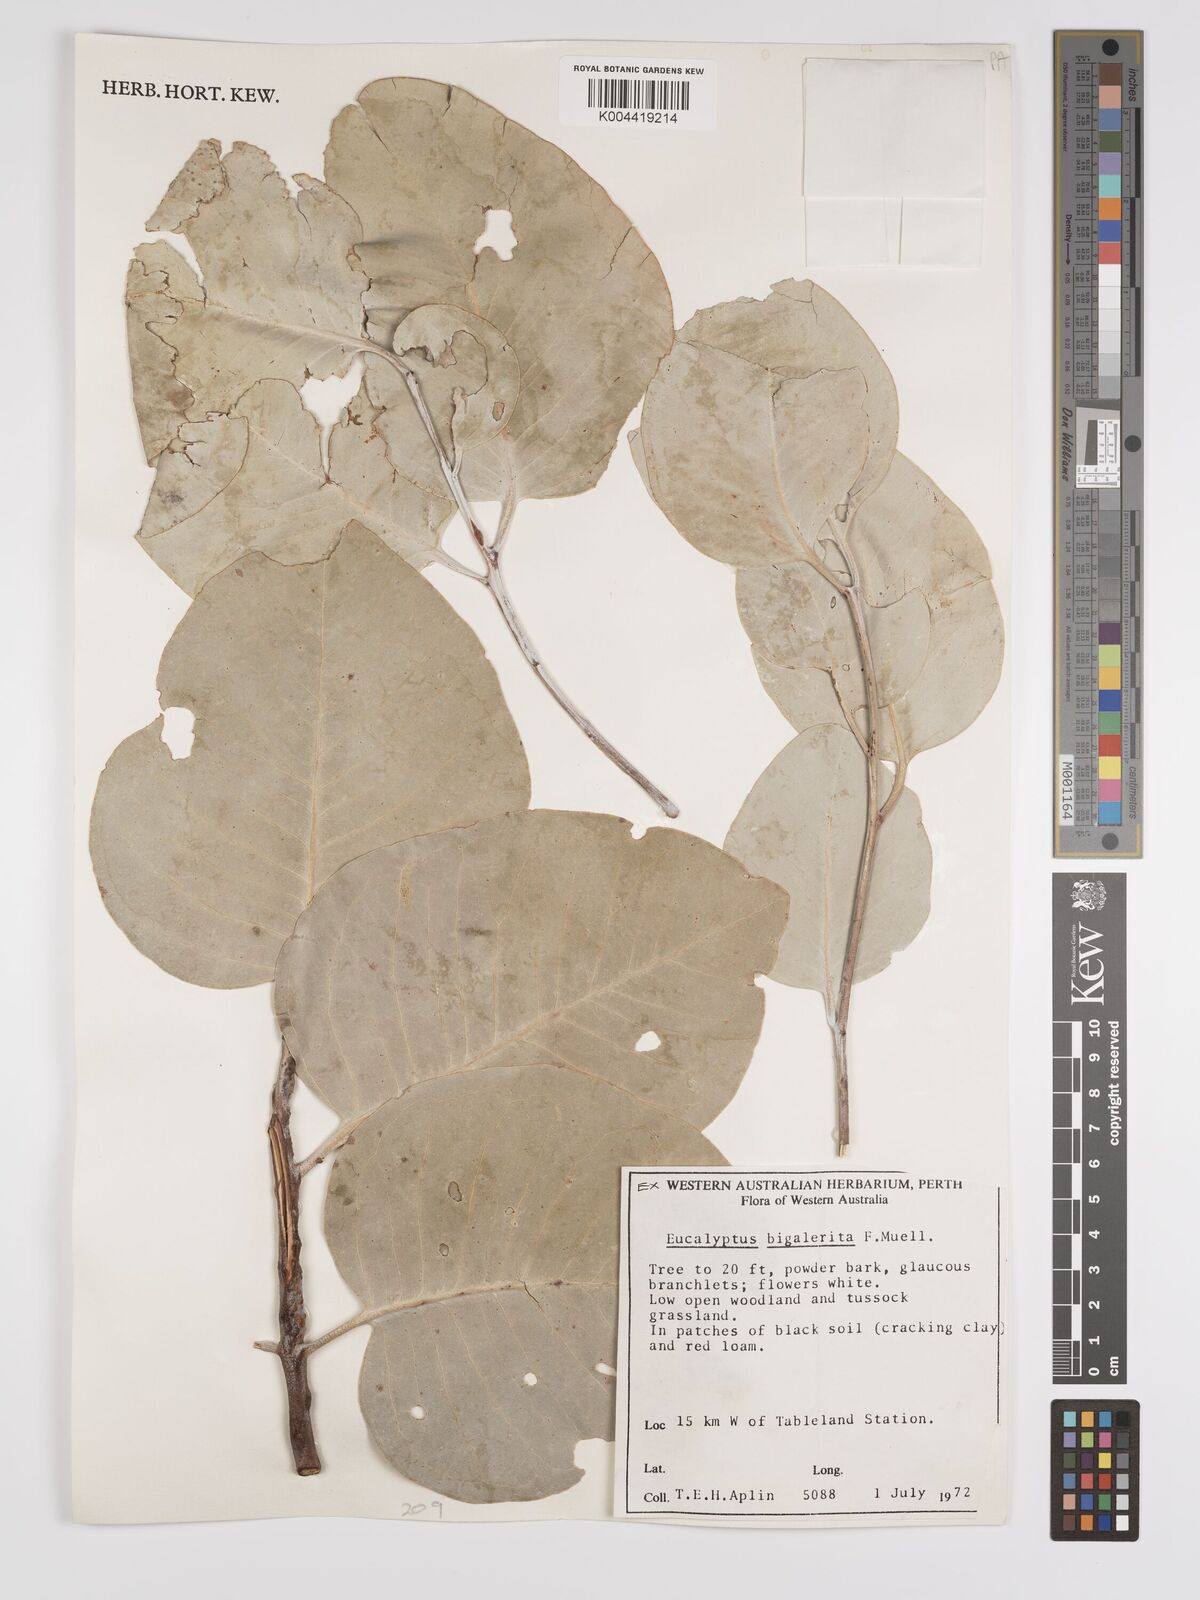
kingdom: Plantae
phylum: Tracheophyta
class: Magnoliopsida
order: Myrtales
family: Myrtaceae
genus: Eucalyptus
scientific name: Eucalyptus bigalerita
